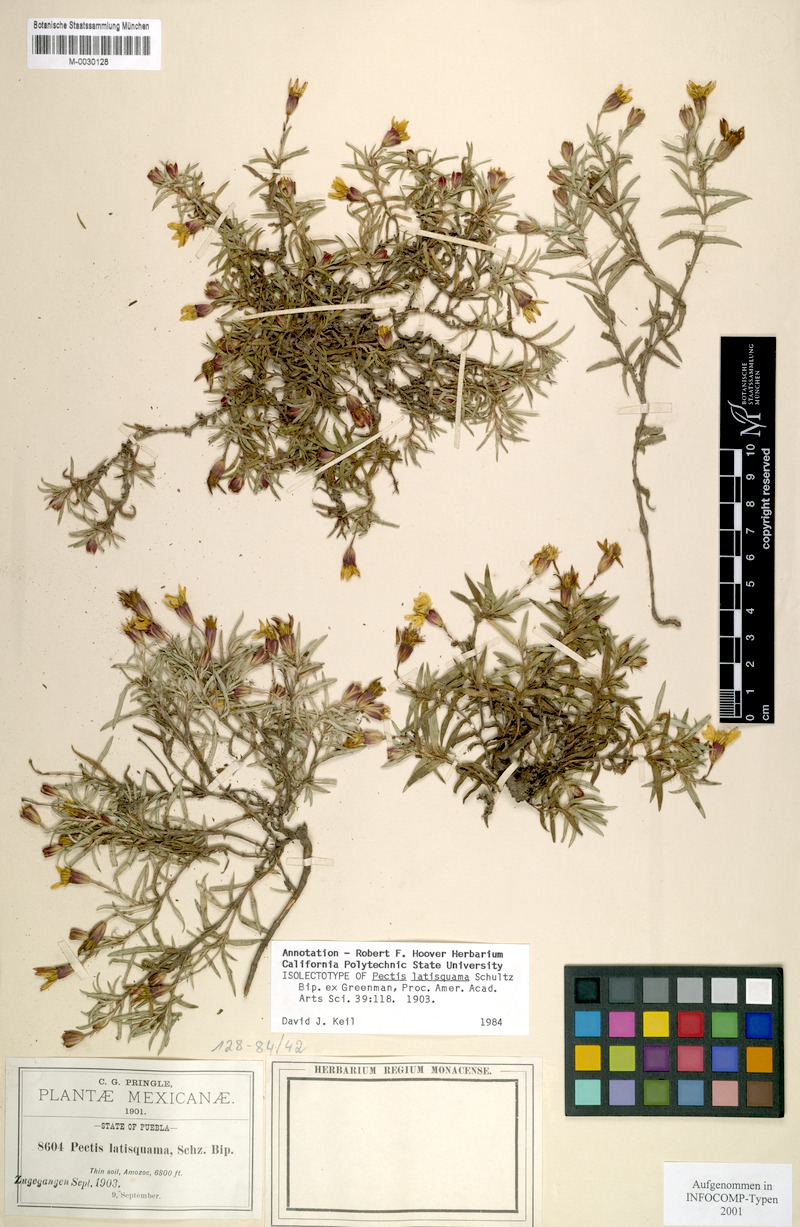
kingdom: Plantae
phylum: Tracheophyta
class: Magnoliopsida
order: Asterales
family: Asteraceae
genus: Pectis
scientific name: Pectis latisquama
